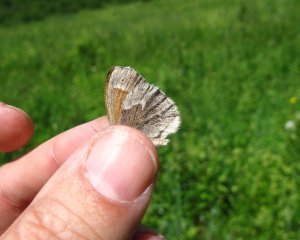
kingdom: Animalia
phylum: Arthropoda
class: Insecta
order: Lepidoptera
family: Nymphalidae
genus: Coenonympha
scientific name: Coenonympha tullia
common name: Large Heath
